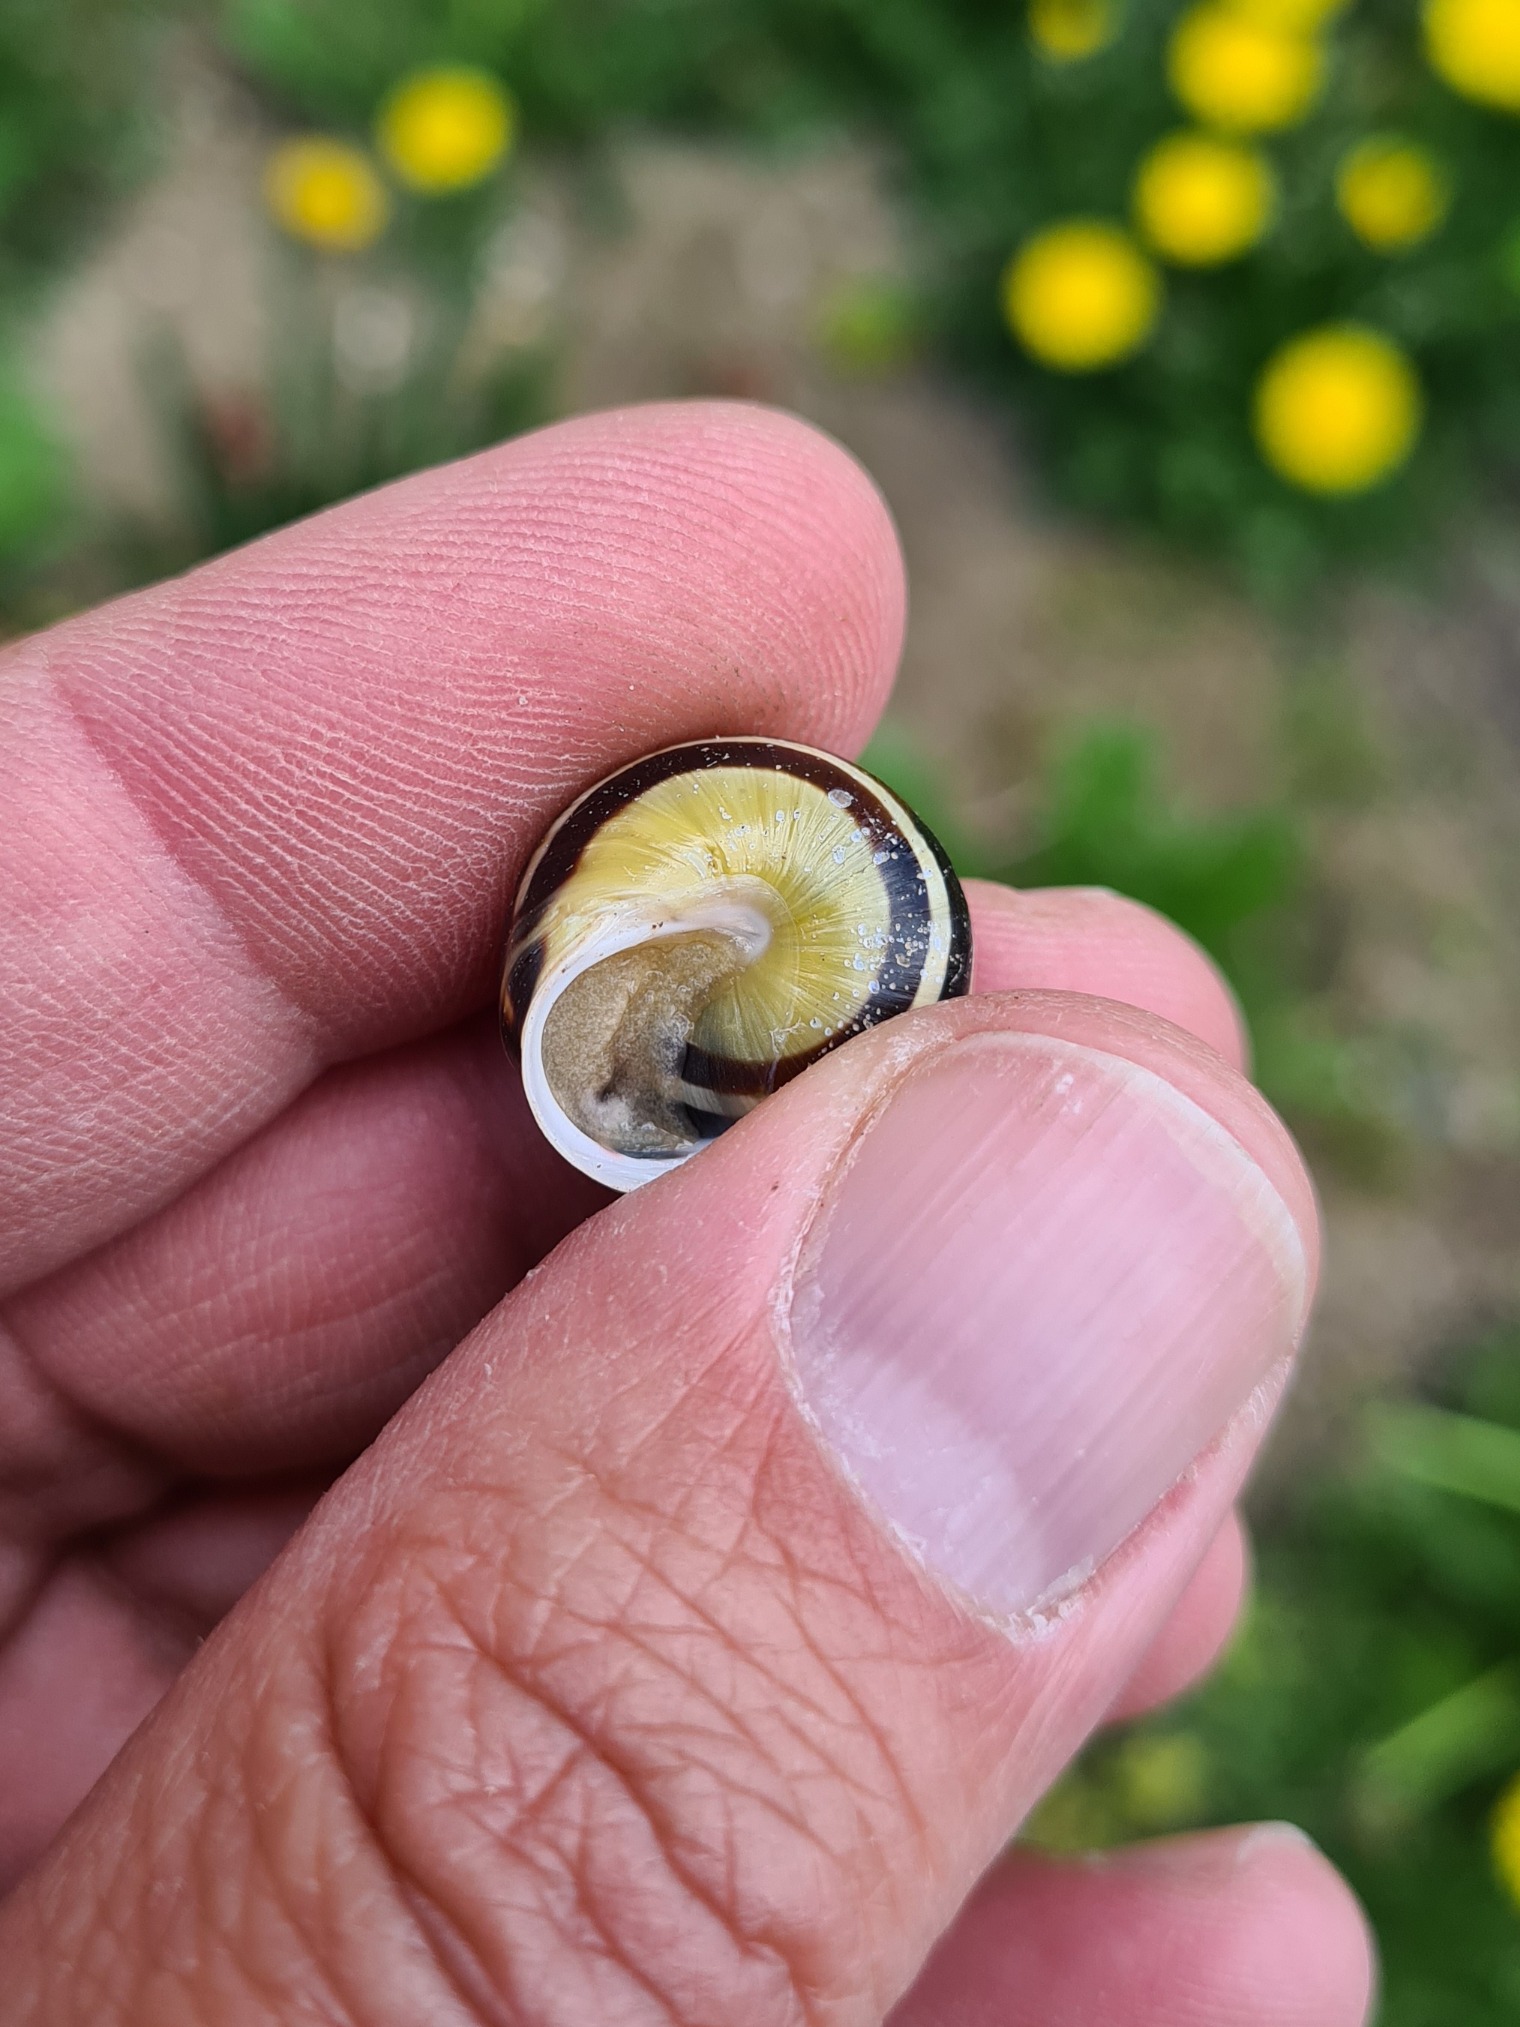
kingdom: Animalia
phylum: Mollusca
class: Gastropoda
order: Stylommatophora
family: Helicidae
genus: Cepaea
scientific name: Cepaea hortensis
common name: Havesnegl
